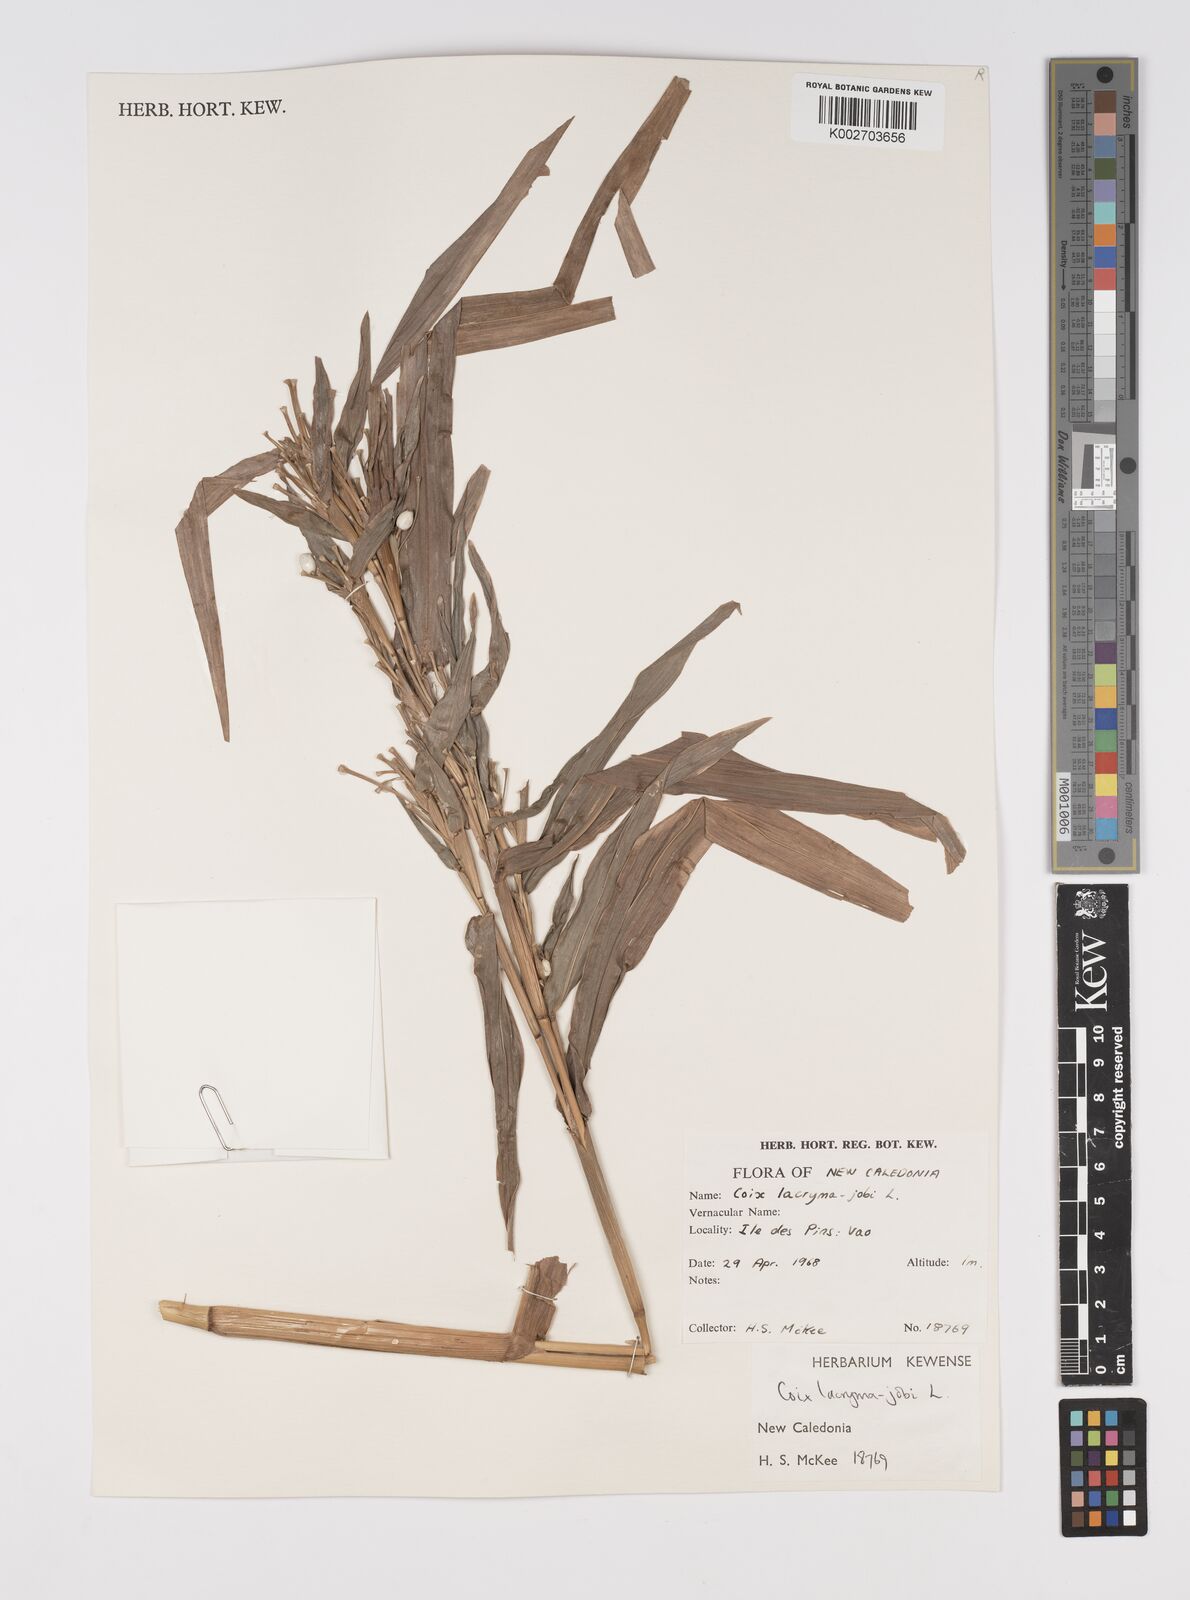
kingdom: Plantae
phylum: Tracheophyta
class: Liliopsida
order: Poales
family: Poaceae
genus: Coix
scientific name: Coix lacryma-jobi
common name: Job's tears
